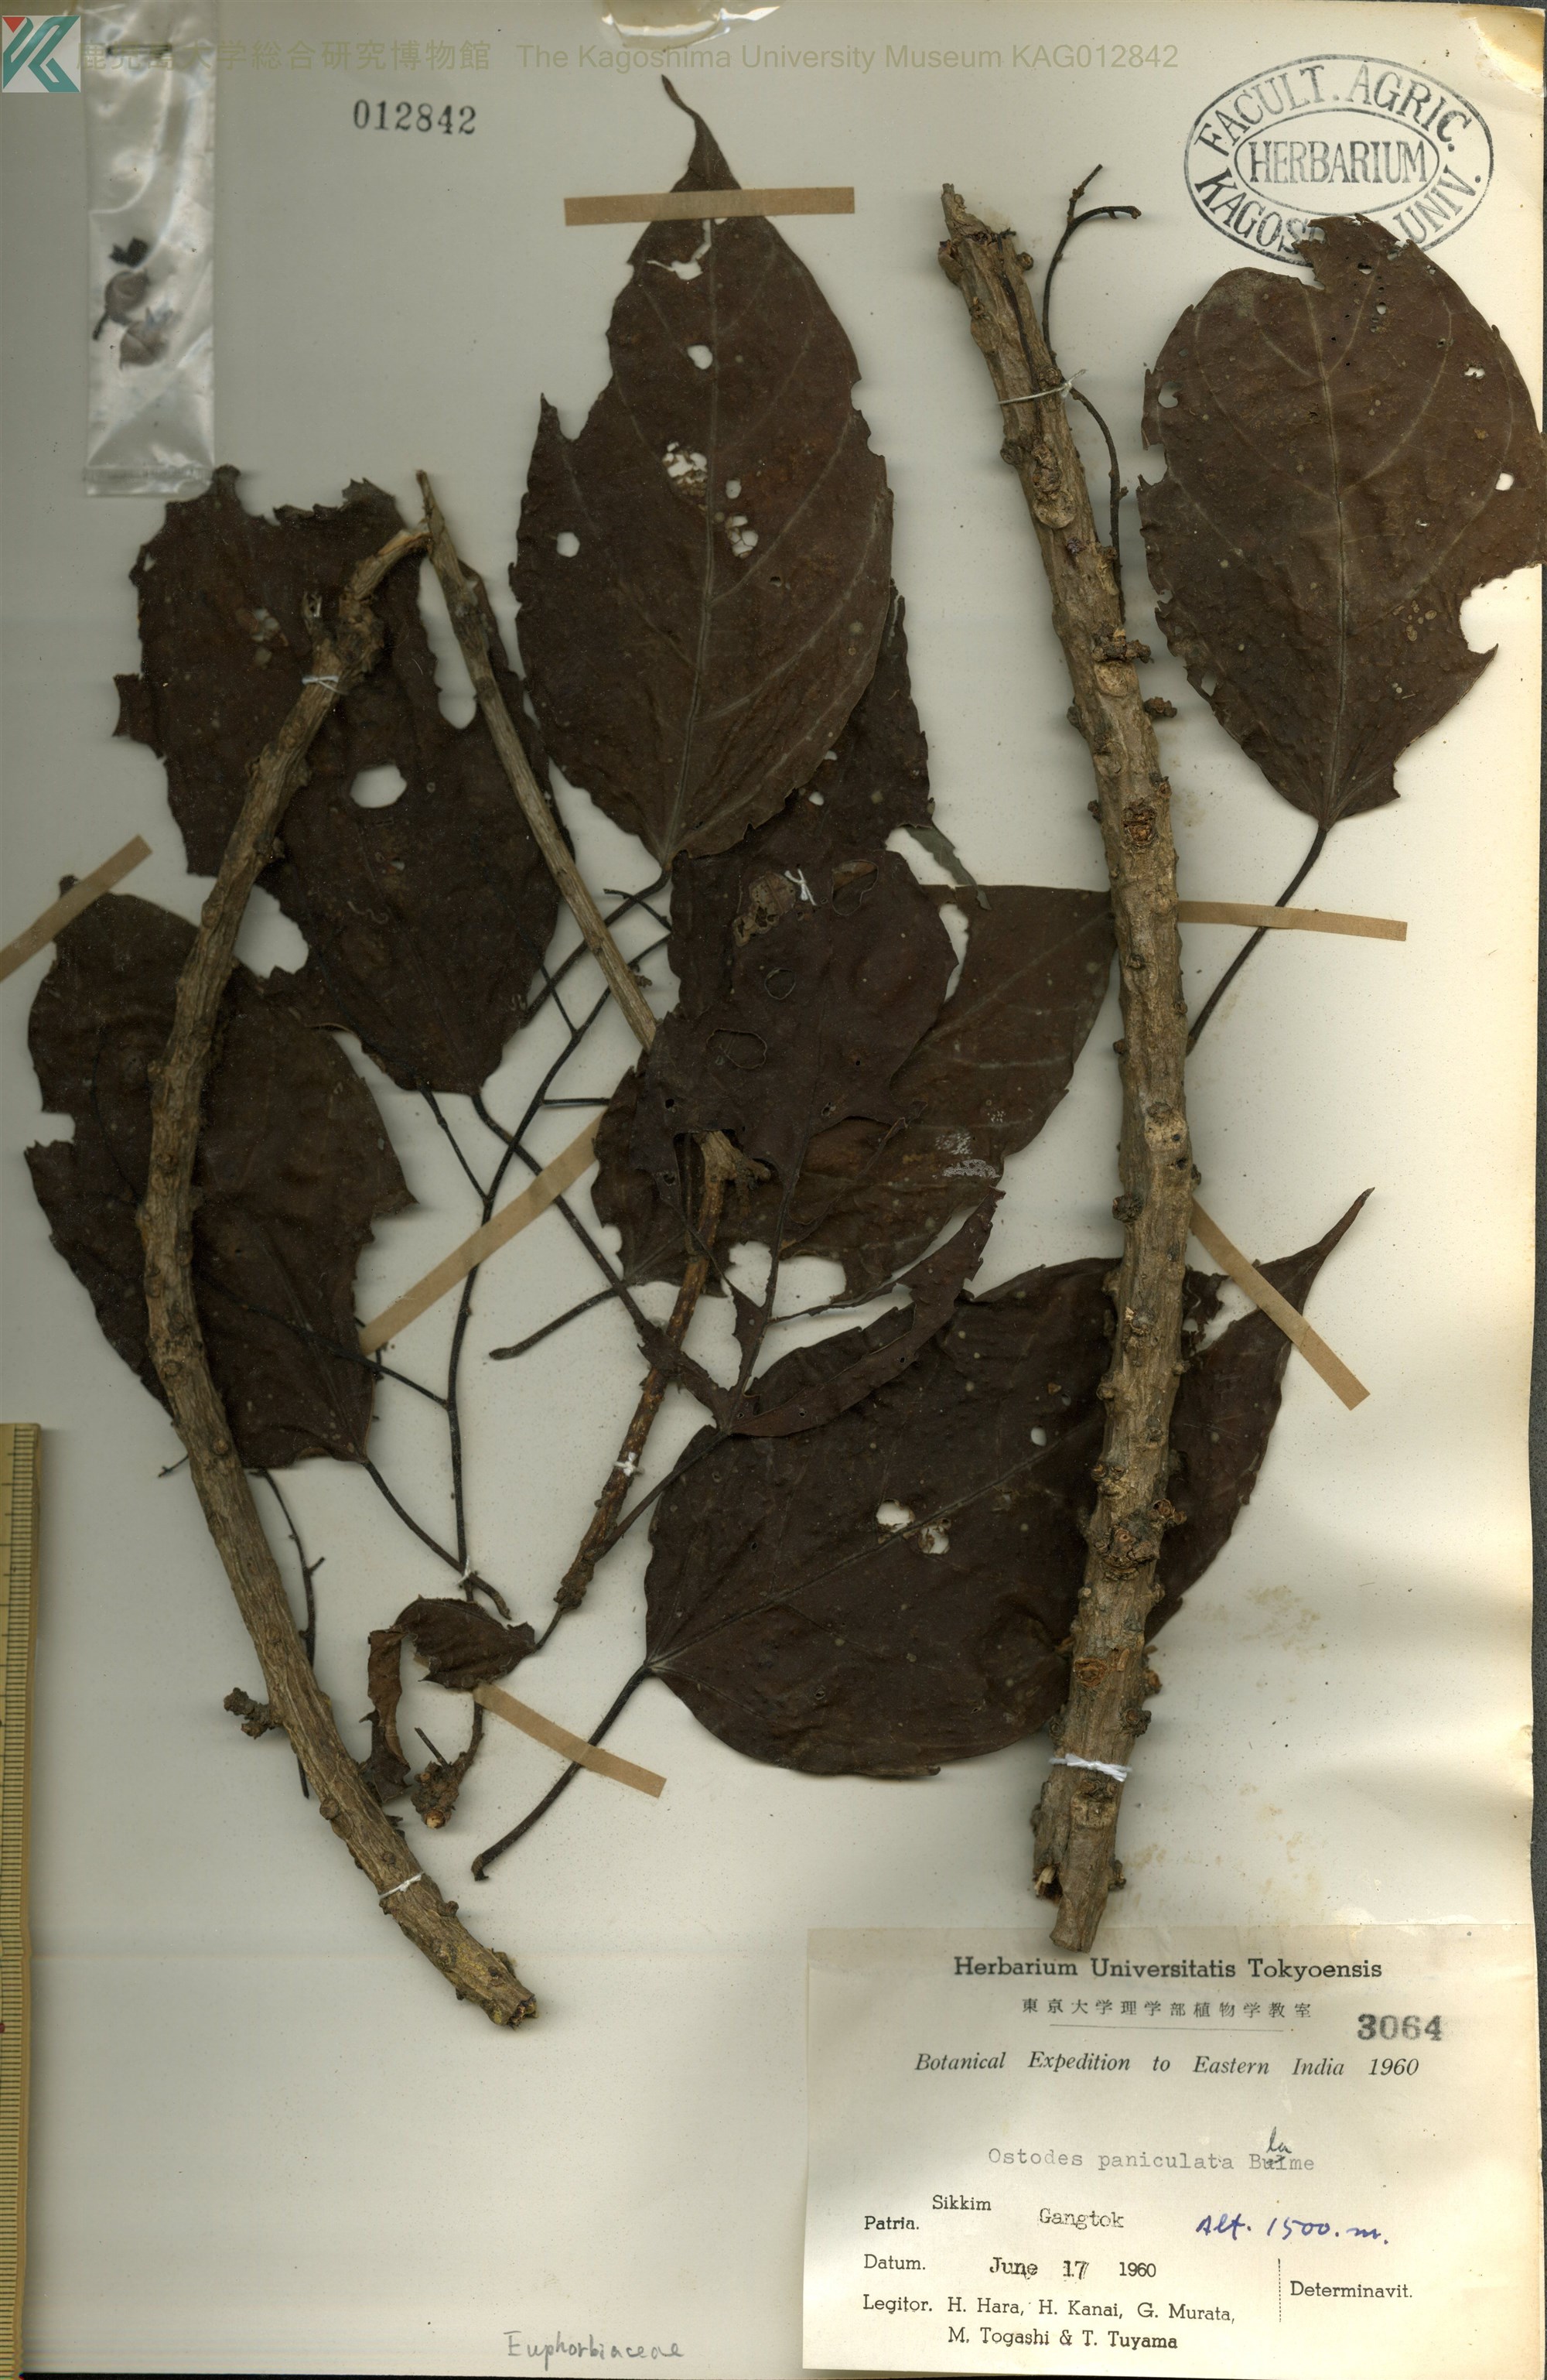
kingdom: Plantae
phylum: Tracheophyta
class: Magnoliopsida
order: Malpighiales
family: Euphorbiaceae
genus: Ostodes
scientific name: Ostodes paniculata
